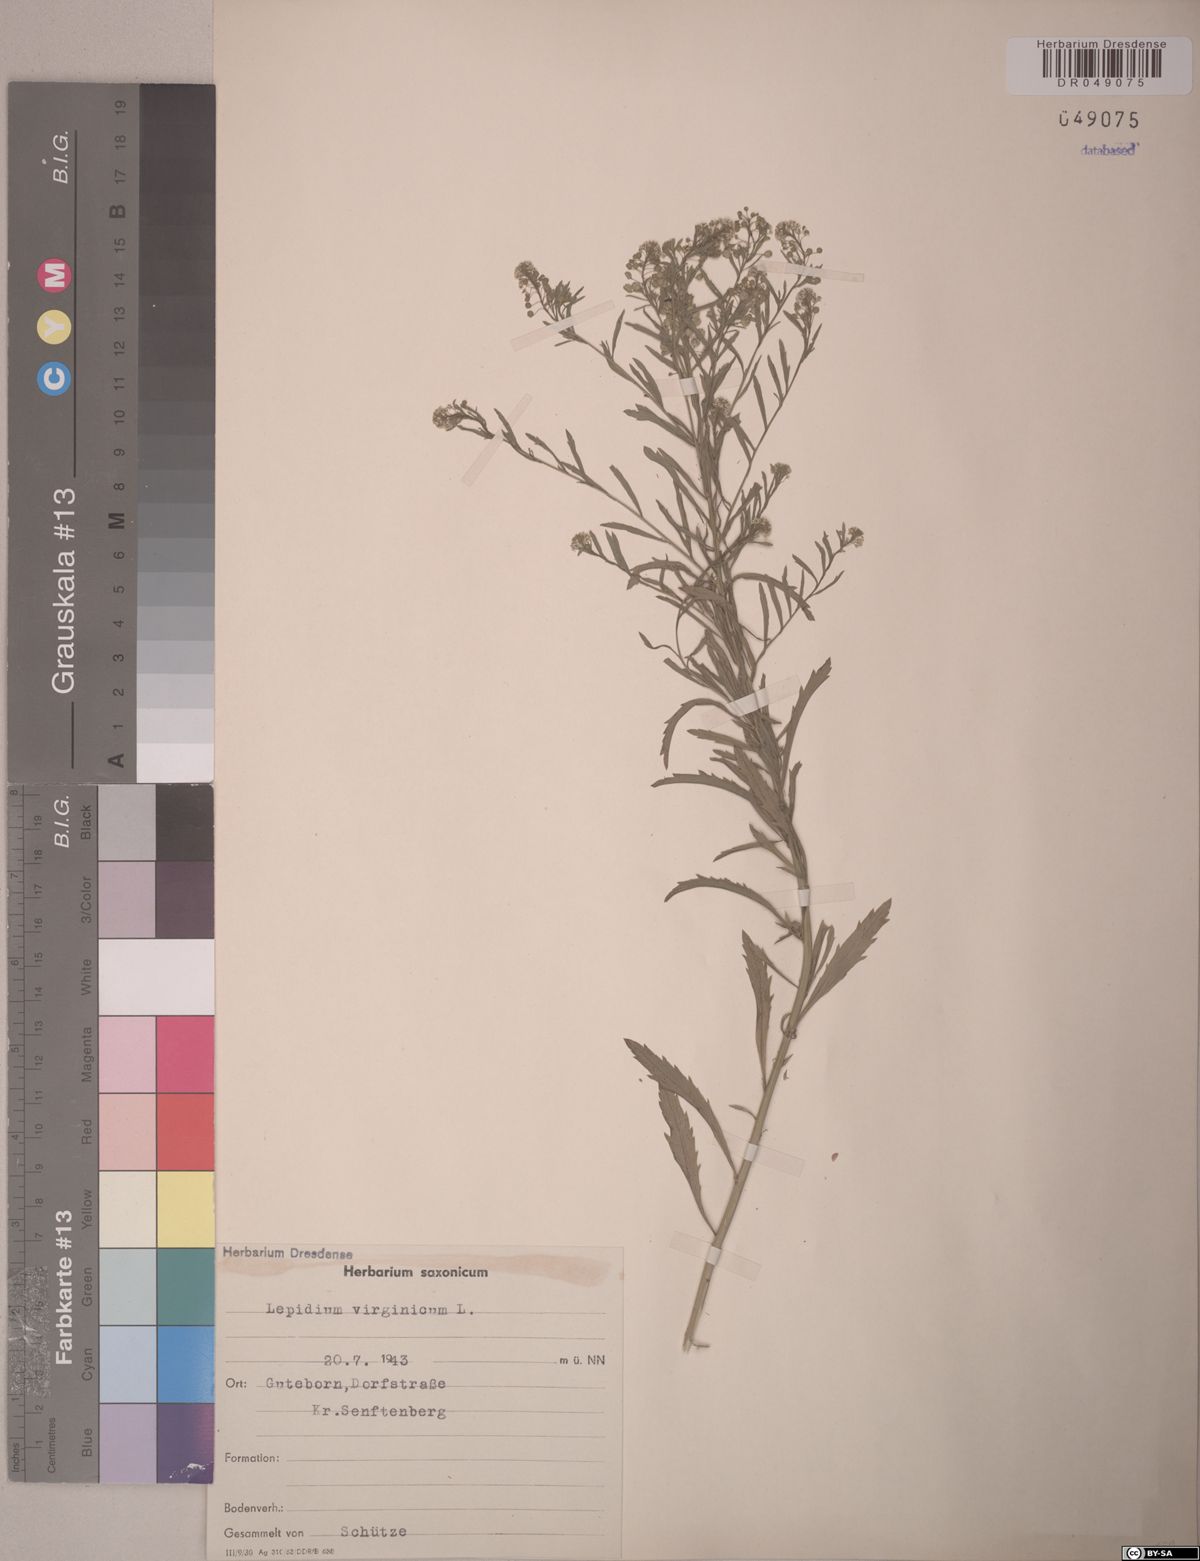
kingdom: Plantae
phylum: Tracheophyta
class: Magnoliopsida
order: Brassicales
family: Brassicaceae
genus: Lepidium
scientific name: Lepidium virginicum
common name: Least pepperwort
